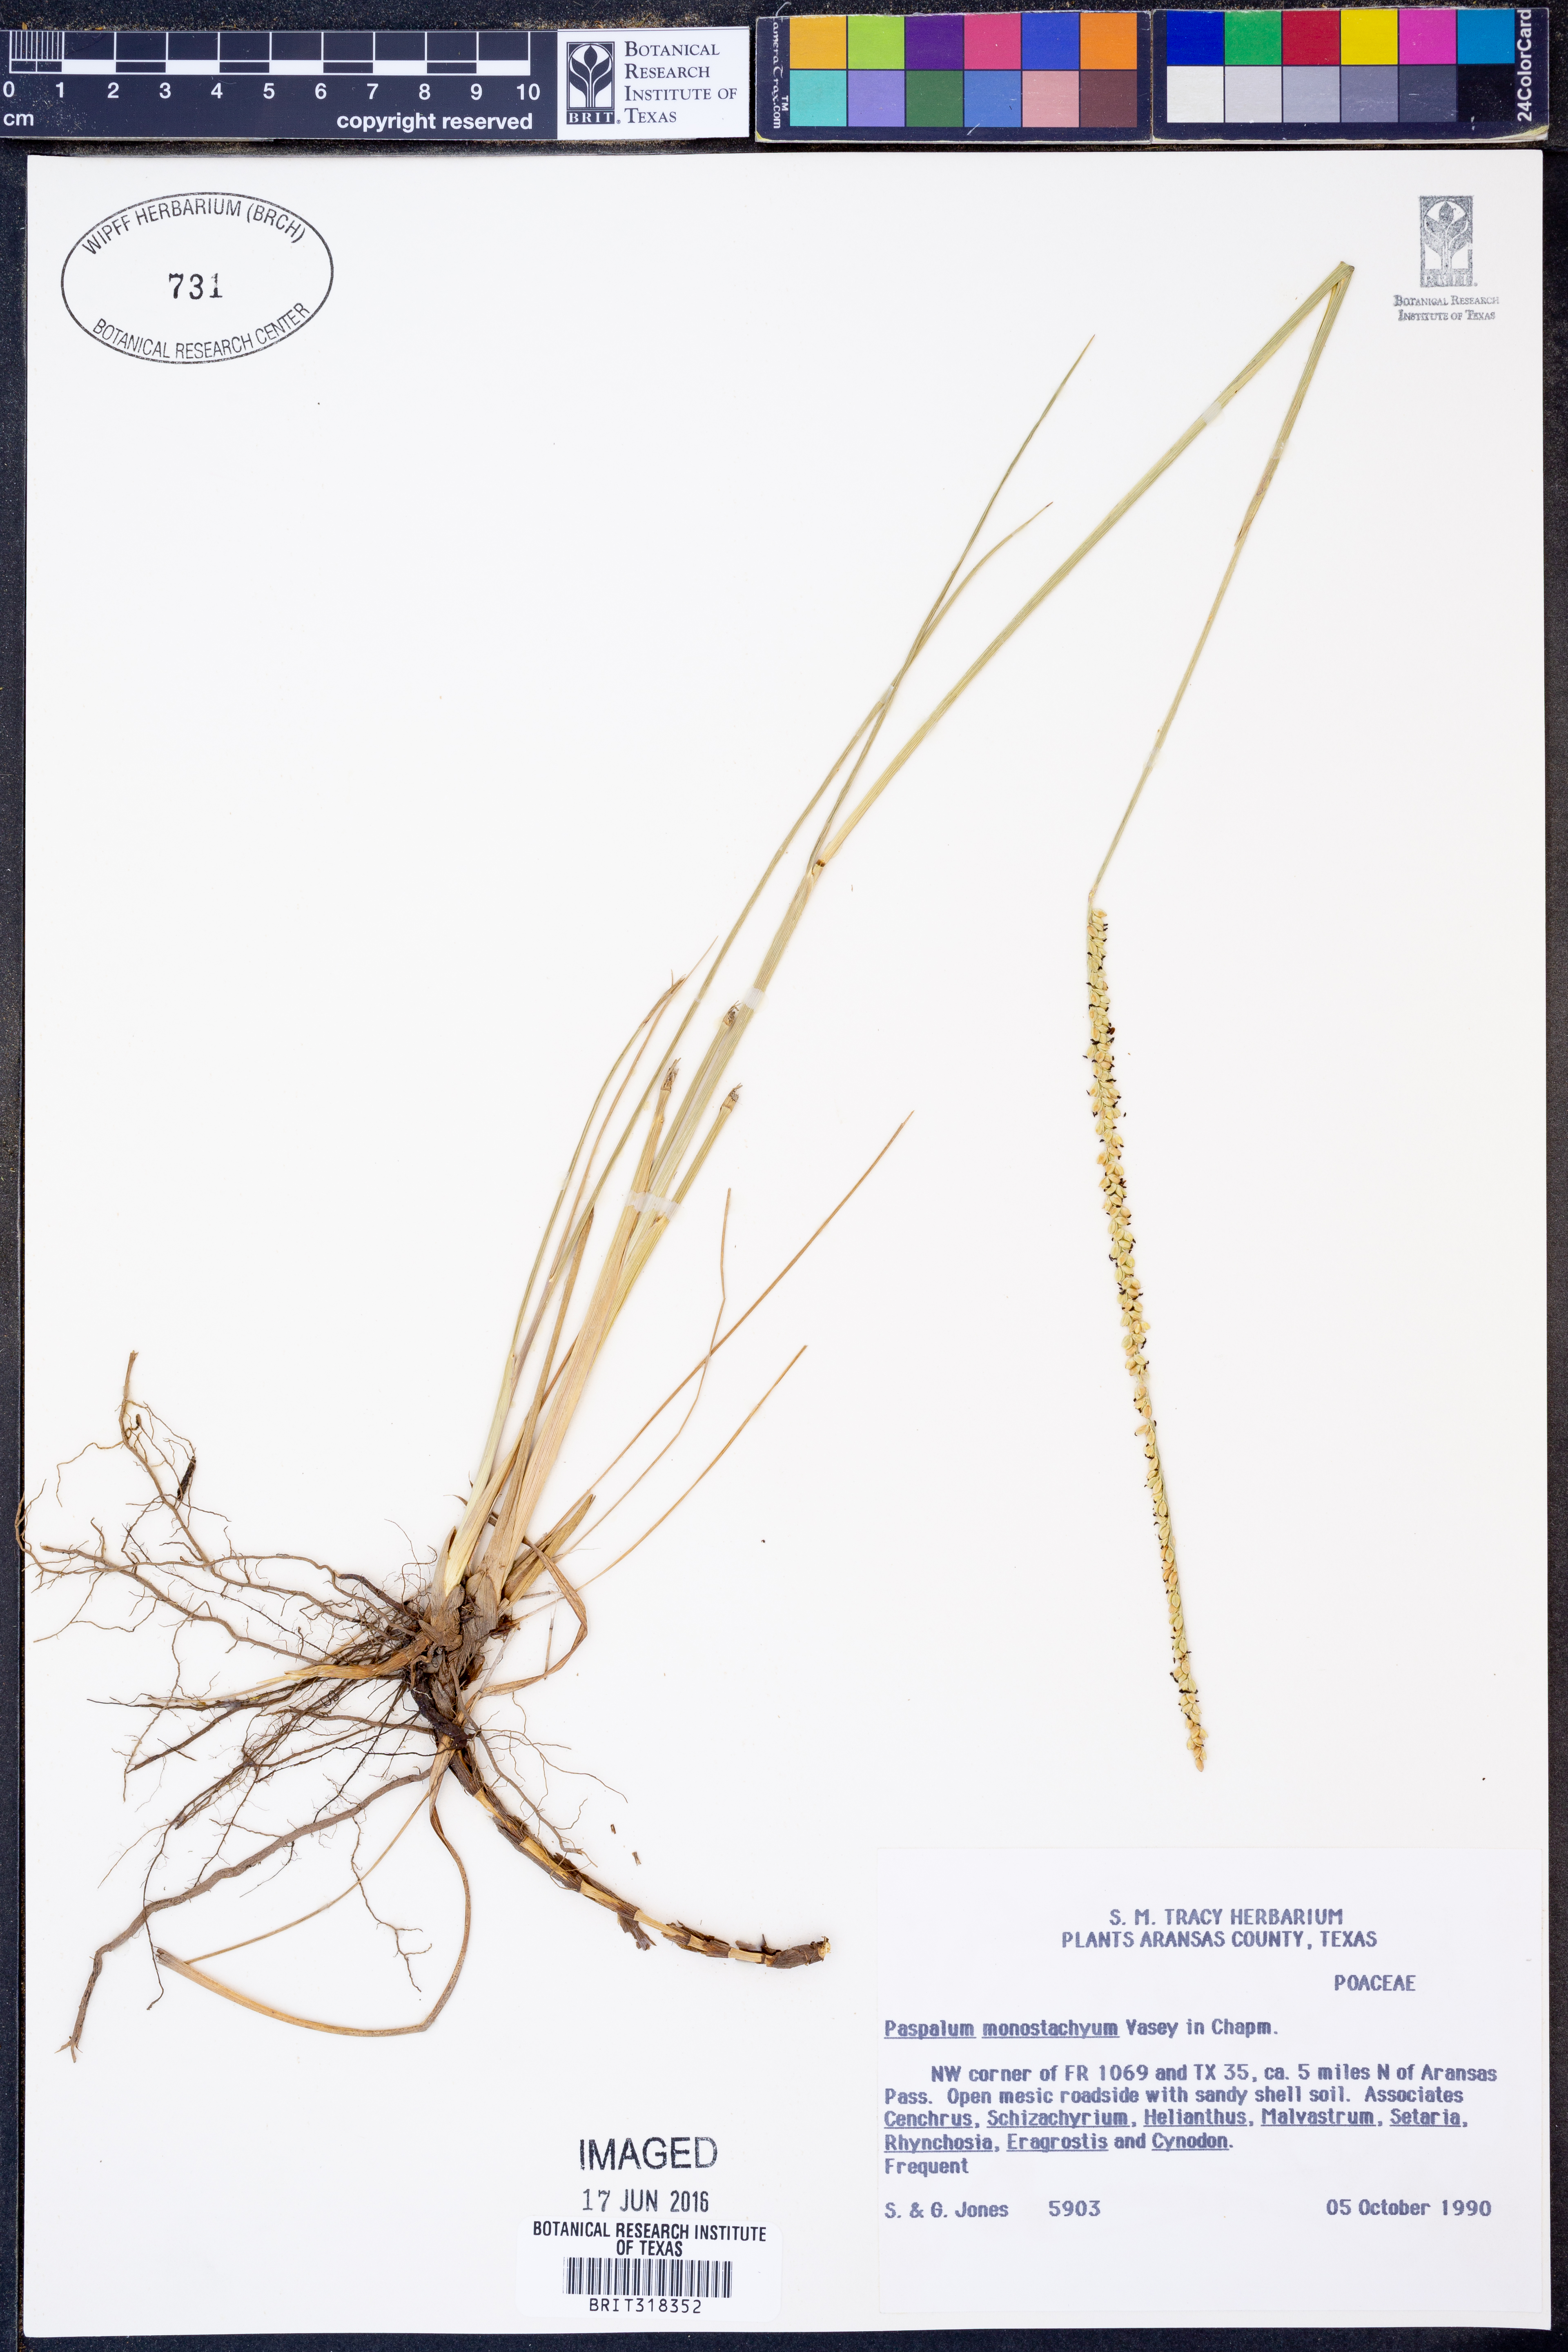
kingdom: Plantae
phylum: Tracheophyta
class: Liliopsida
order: Poales
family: Poaceae
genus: Paspalum
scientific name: Paspalum monostachyum
